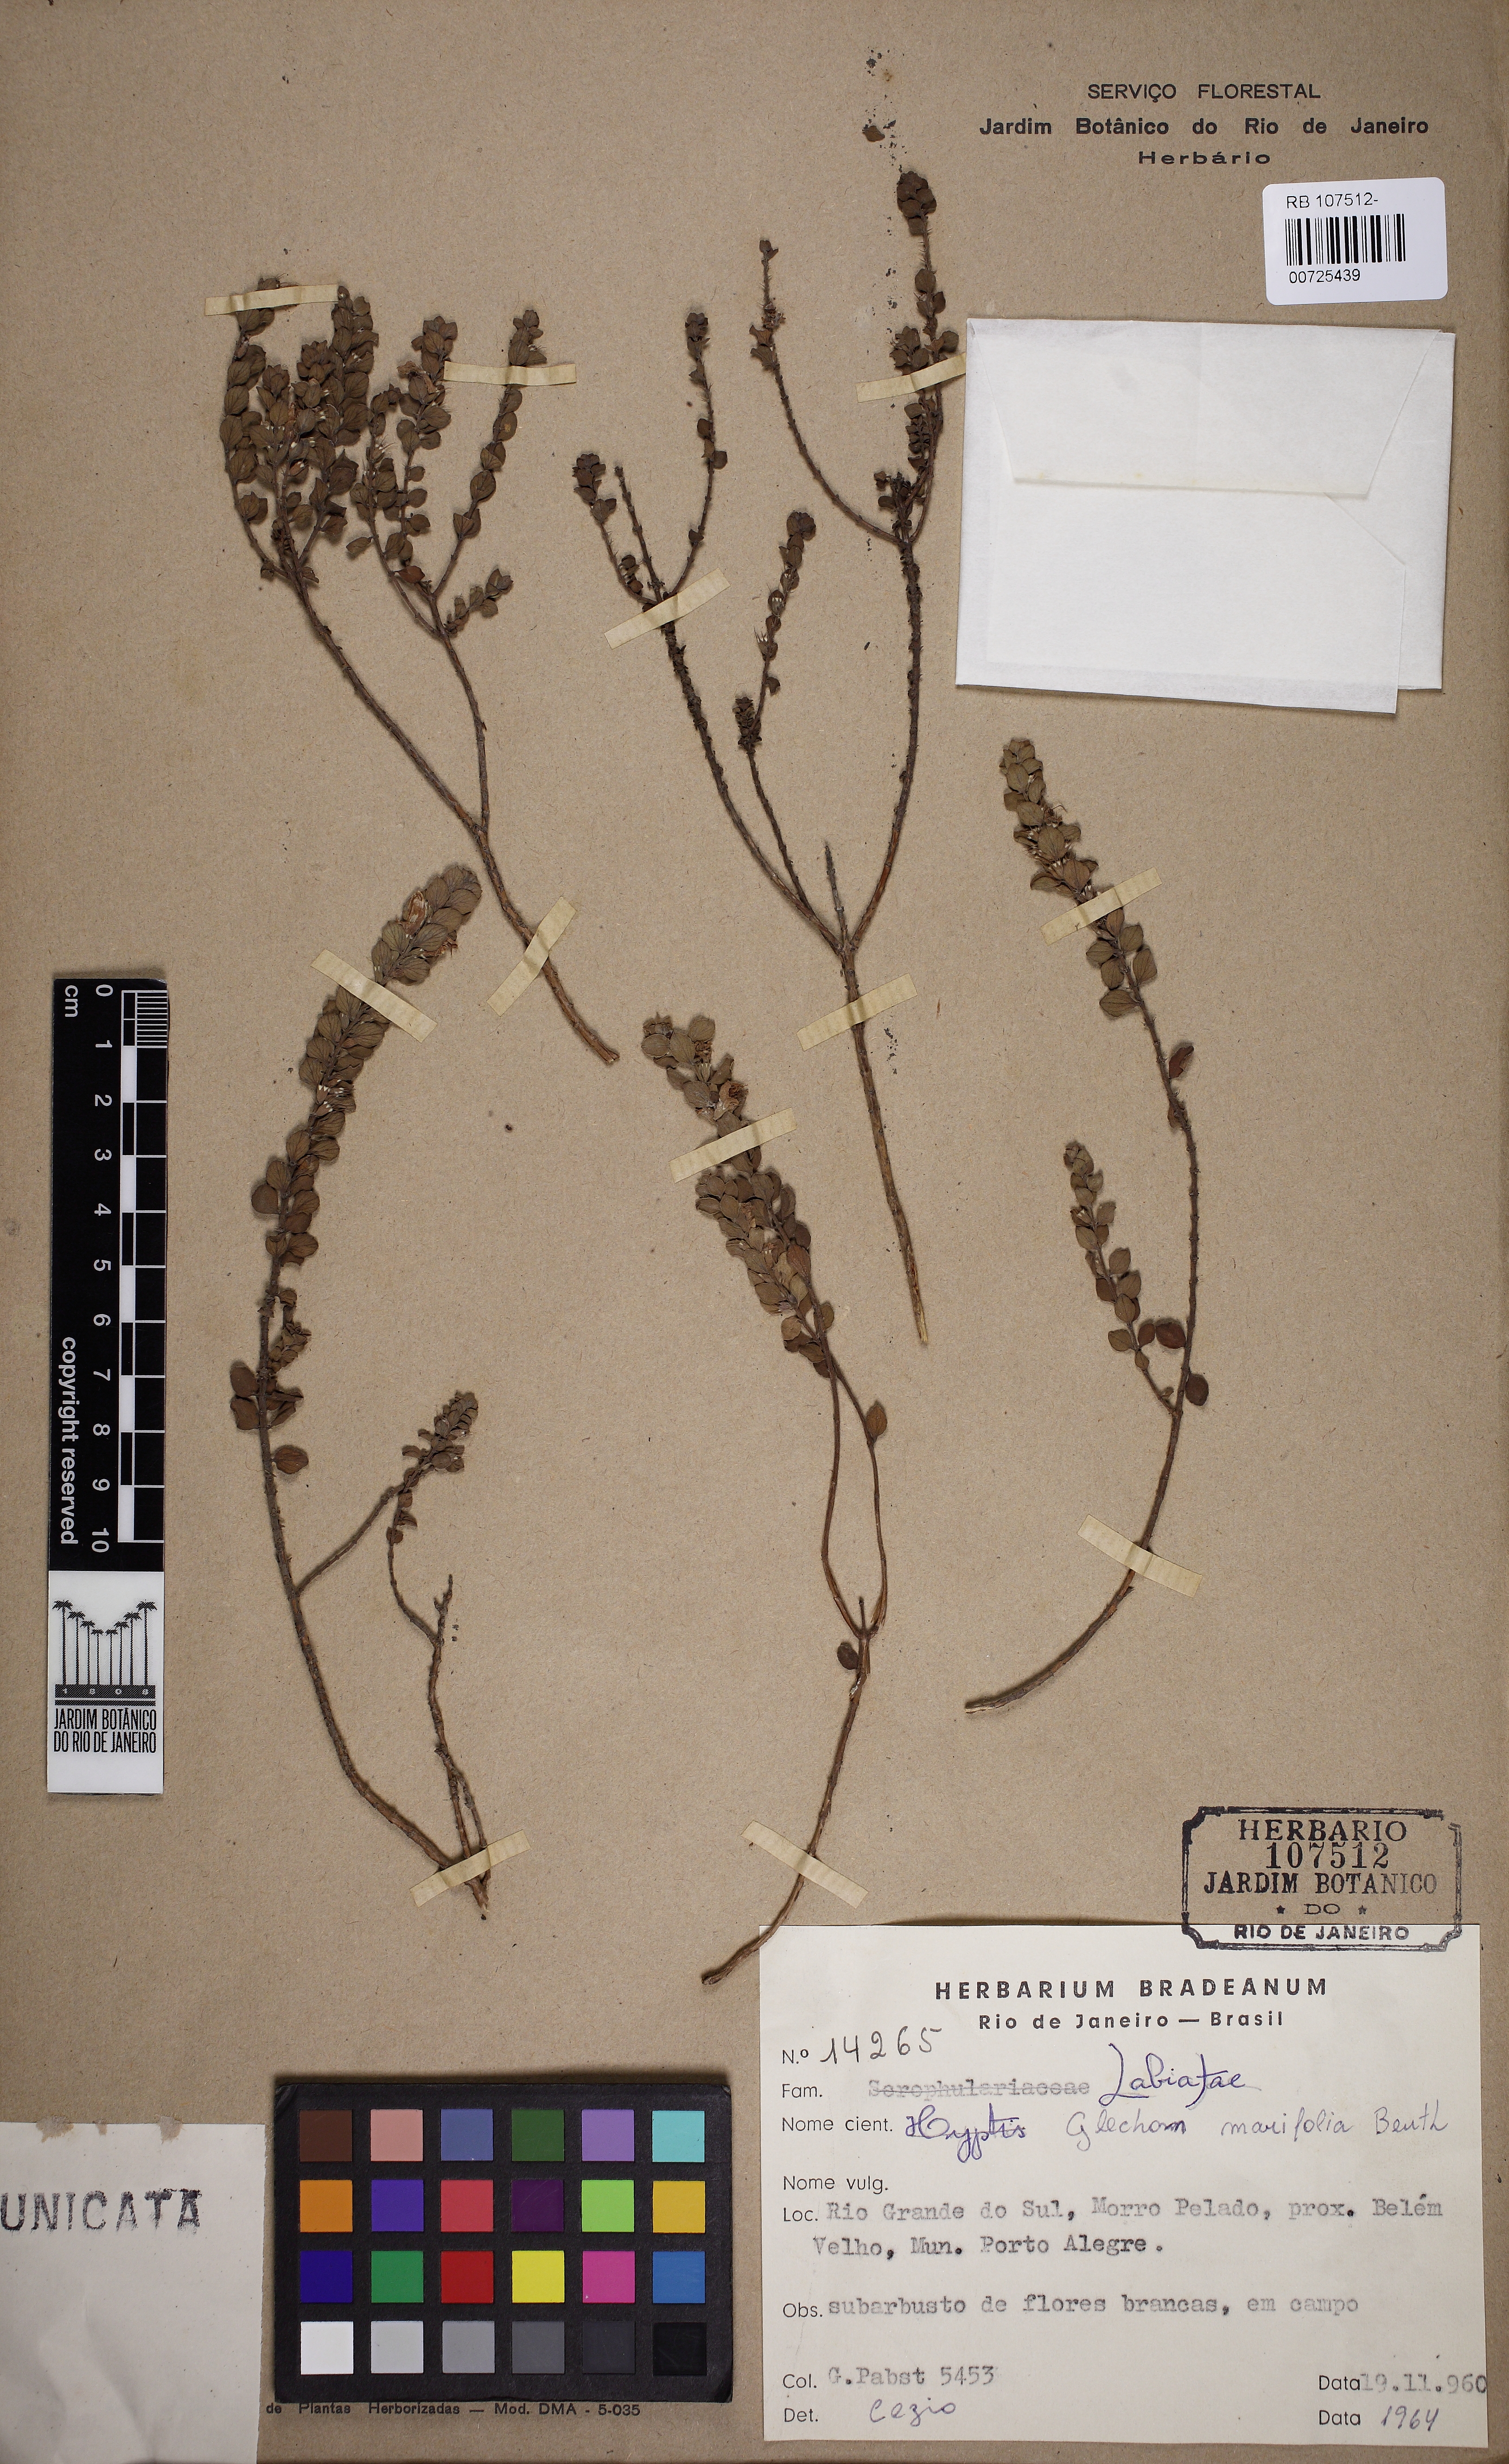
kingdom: Plantae
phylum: Tracheophyta
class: Magnoliopsida
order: Lamiales
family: Lamiaceae
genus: Glechon
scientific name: Glechon marifolia
